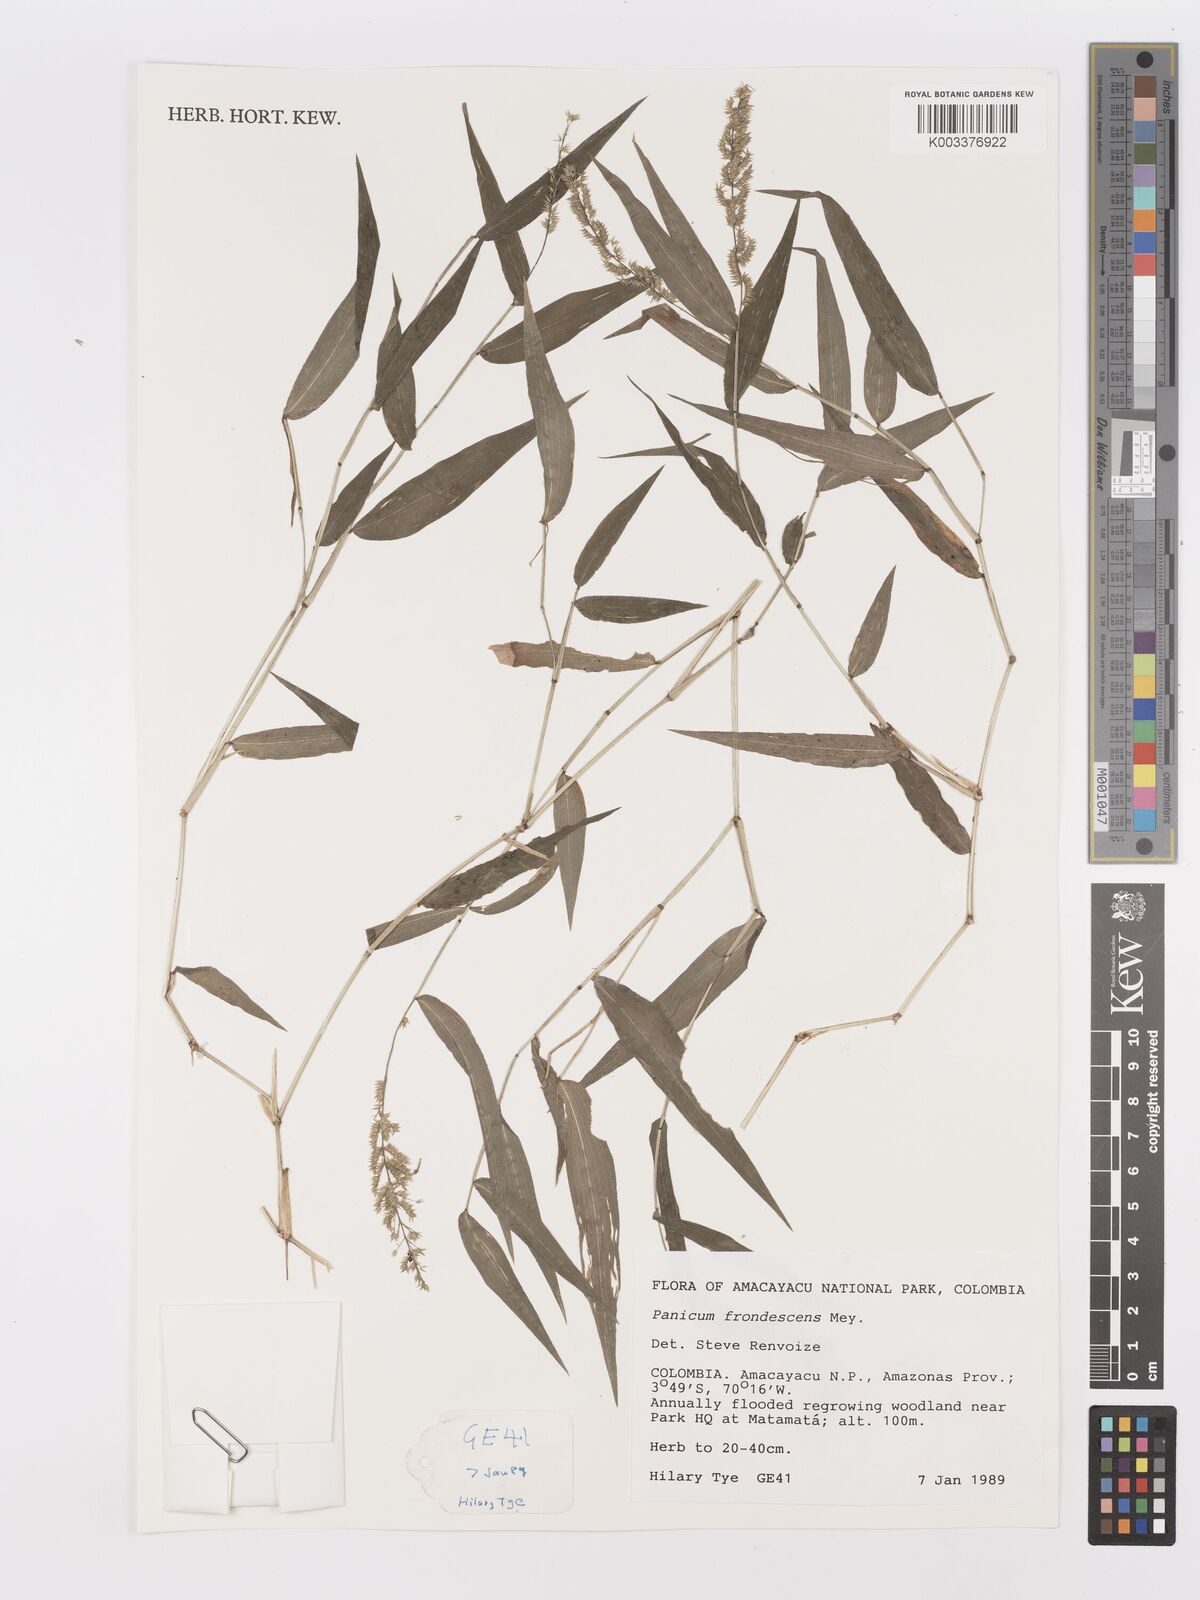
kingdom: Plantae
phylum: Tracheophyta
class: Liliopsida
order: Poales
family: Poaceae
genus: Ocellochloa
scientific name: Ocellochloa stolonifera
